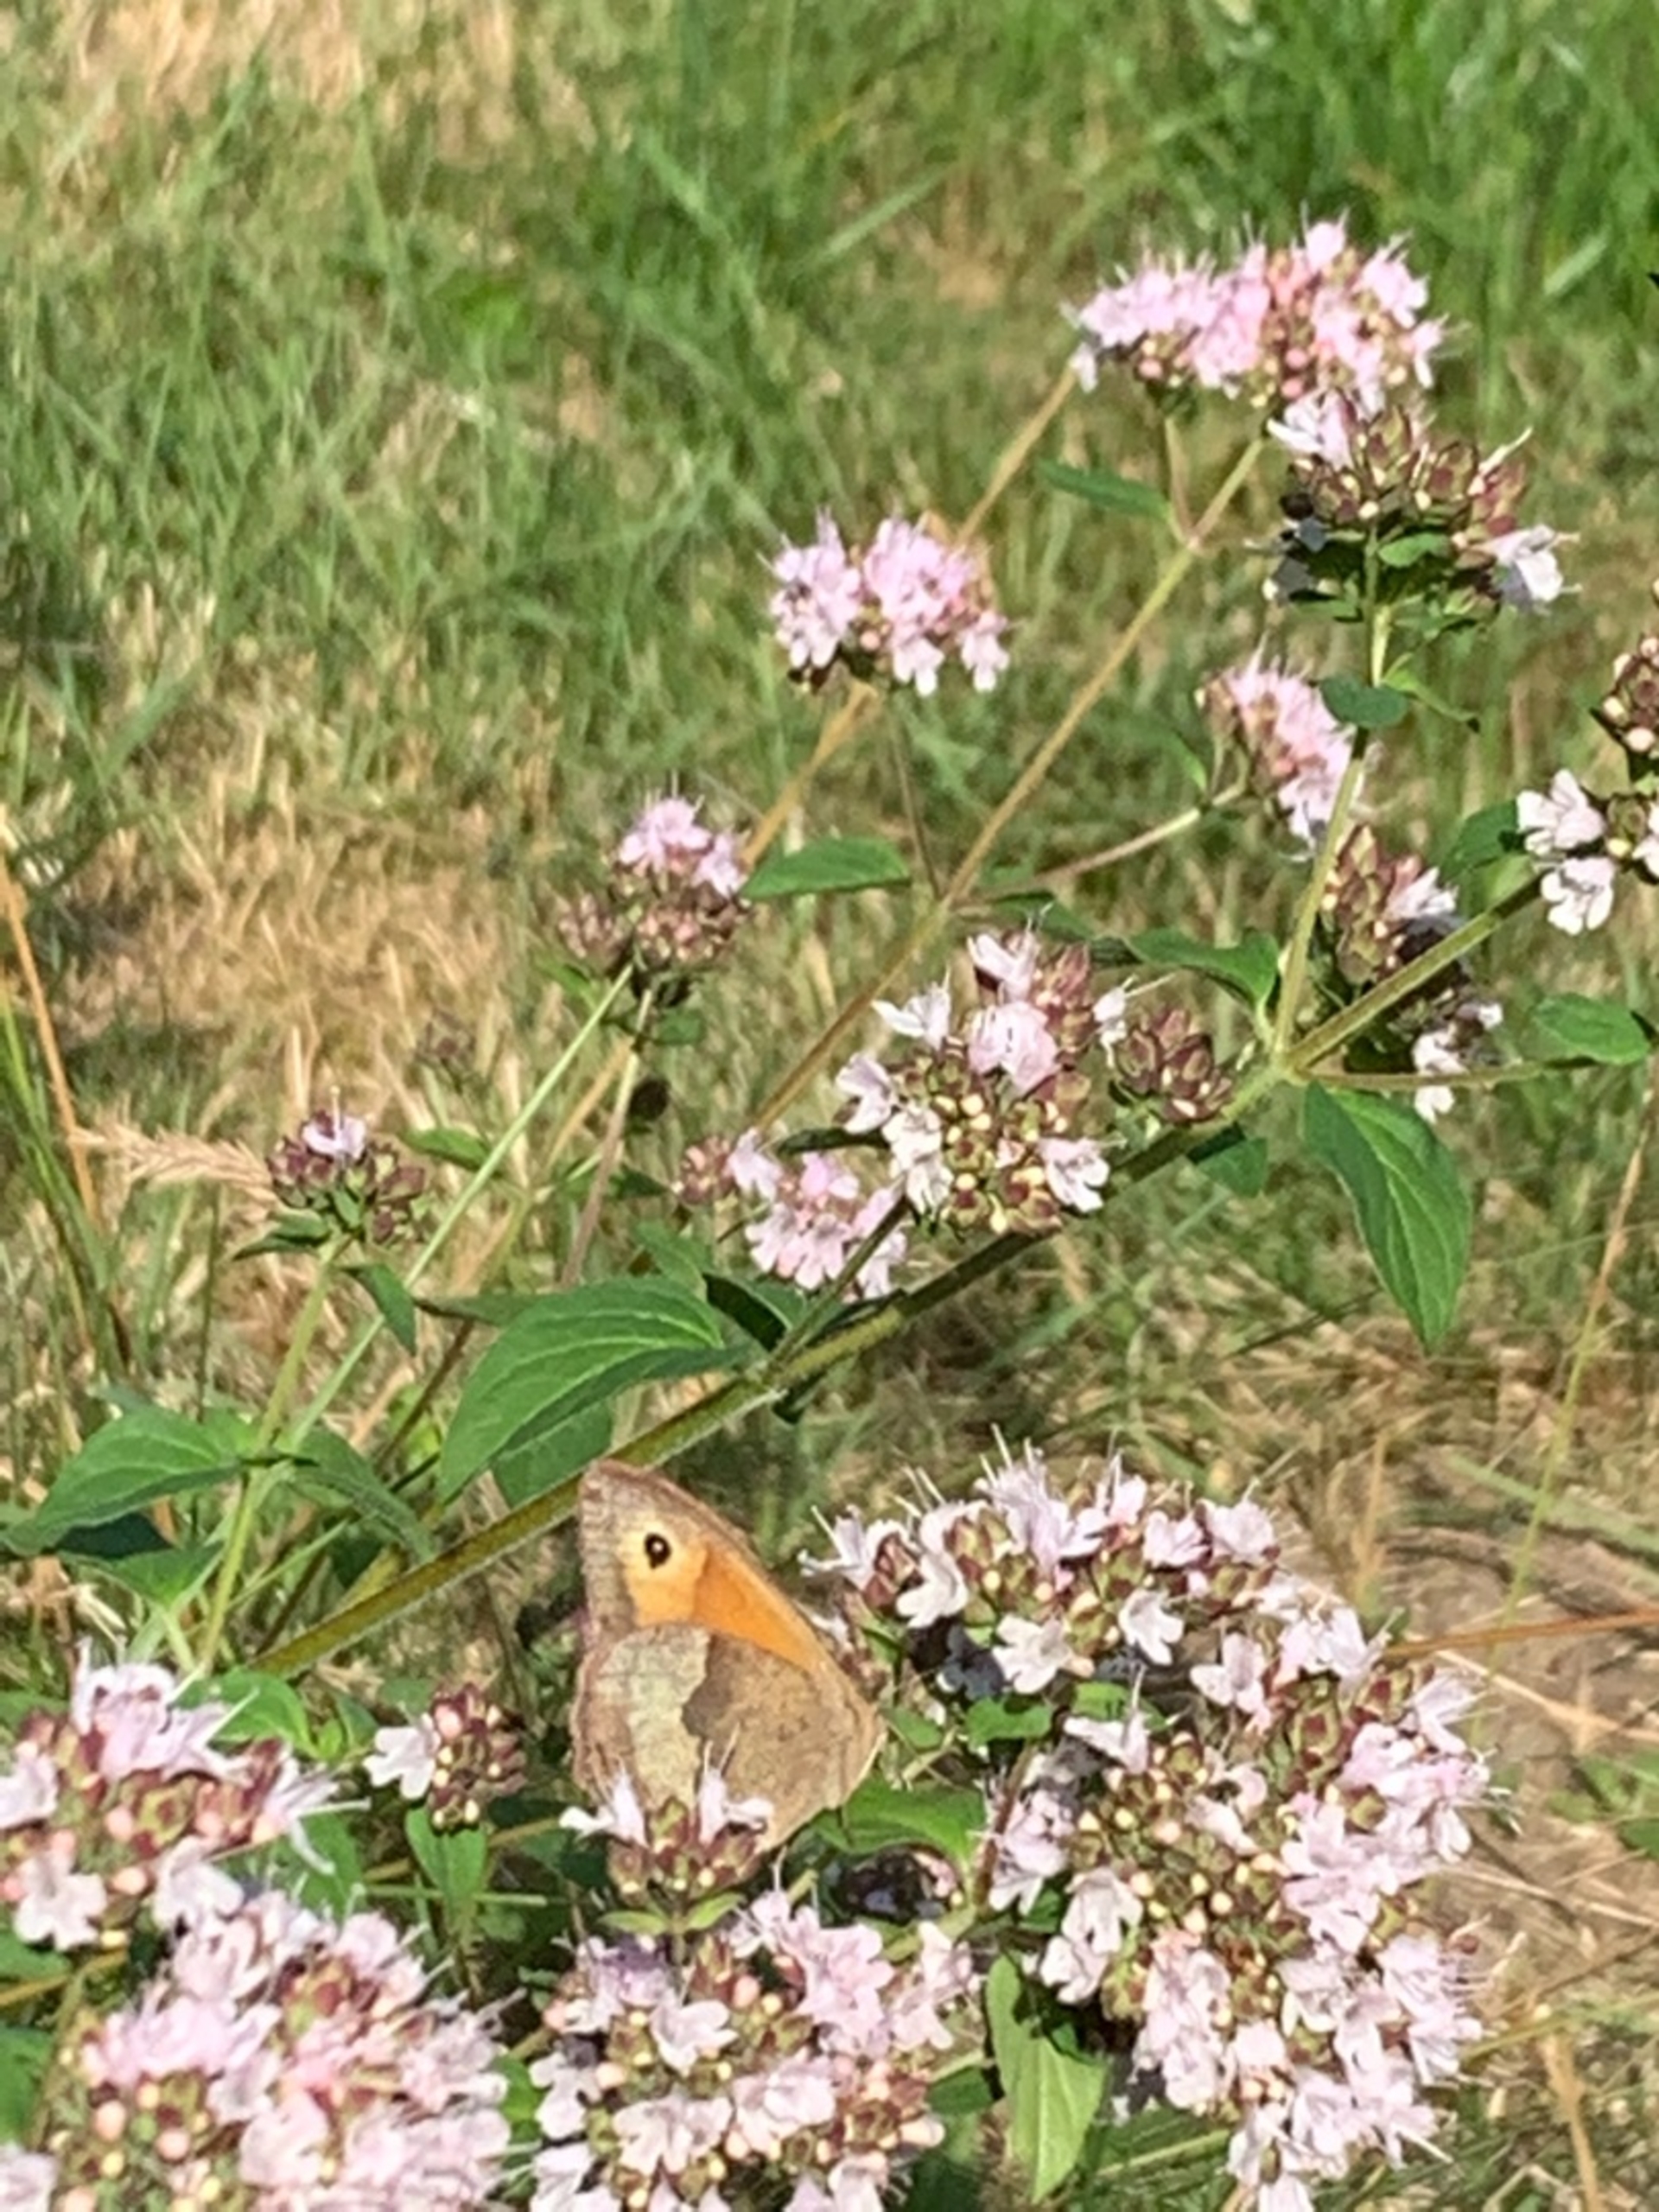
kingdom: Animalia
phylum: Arthropoda
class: Insecta
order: Lepidoptera
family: Nymphalidae
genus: Maniola
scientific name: Maniola jurtina
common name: Græsrandøje
